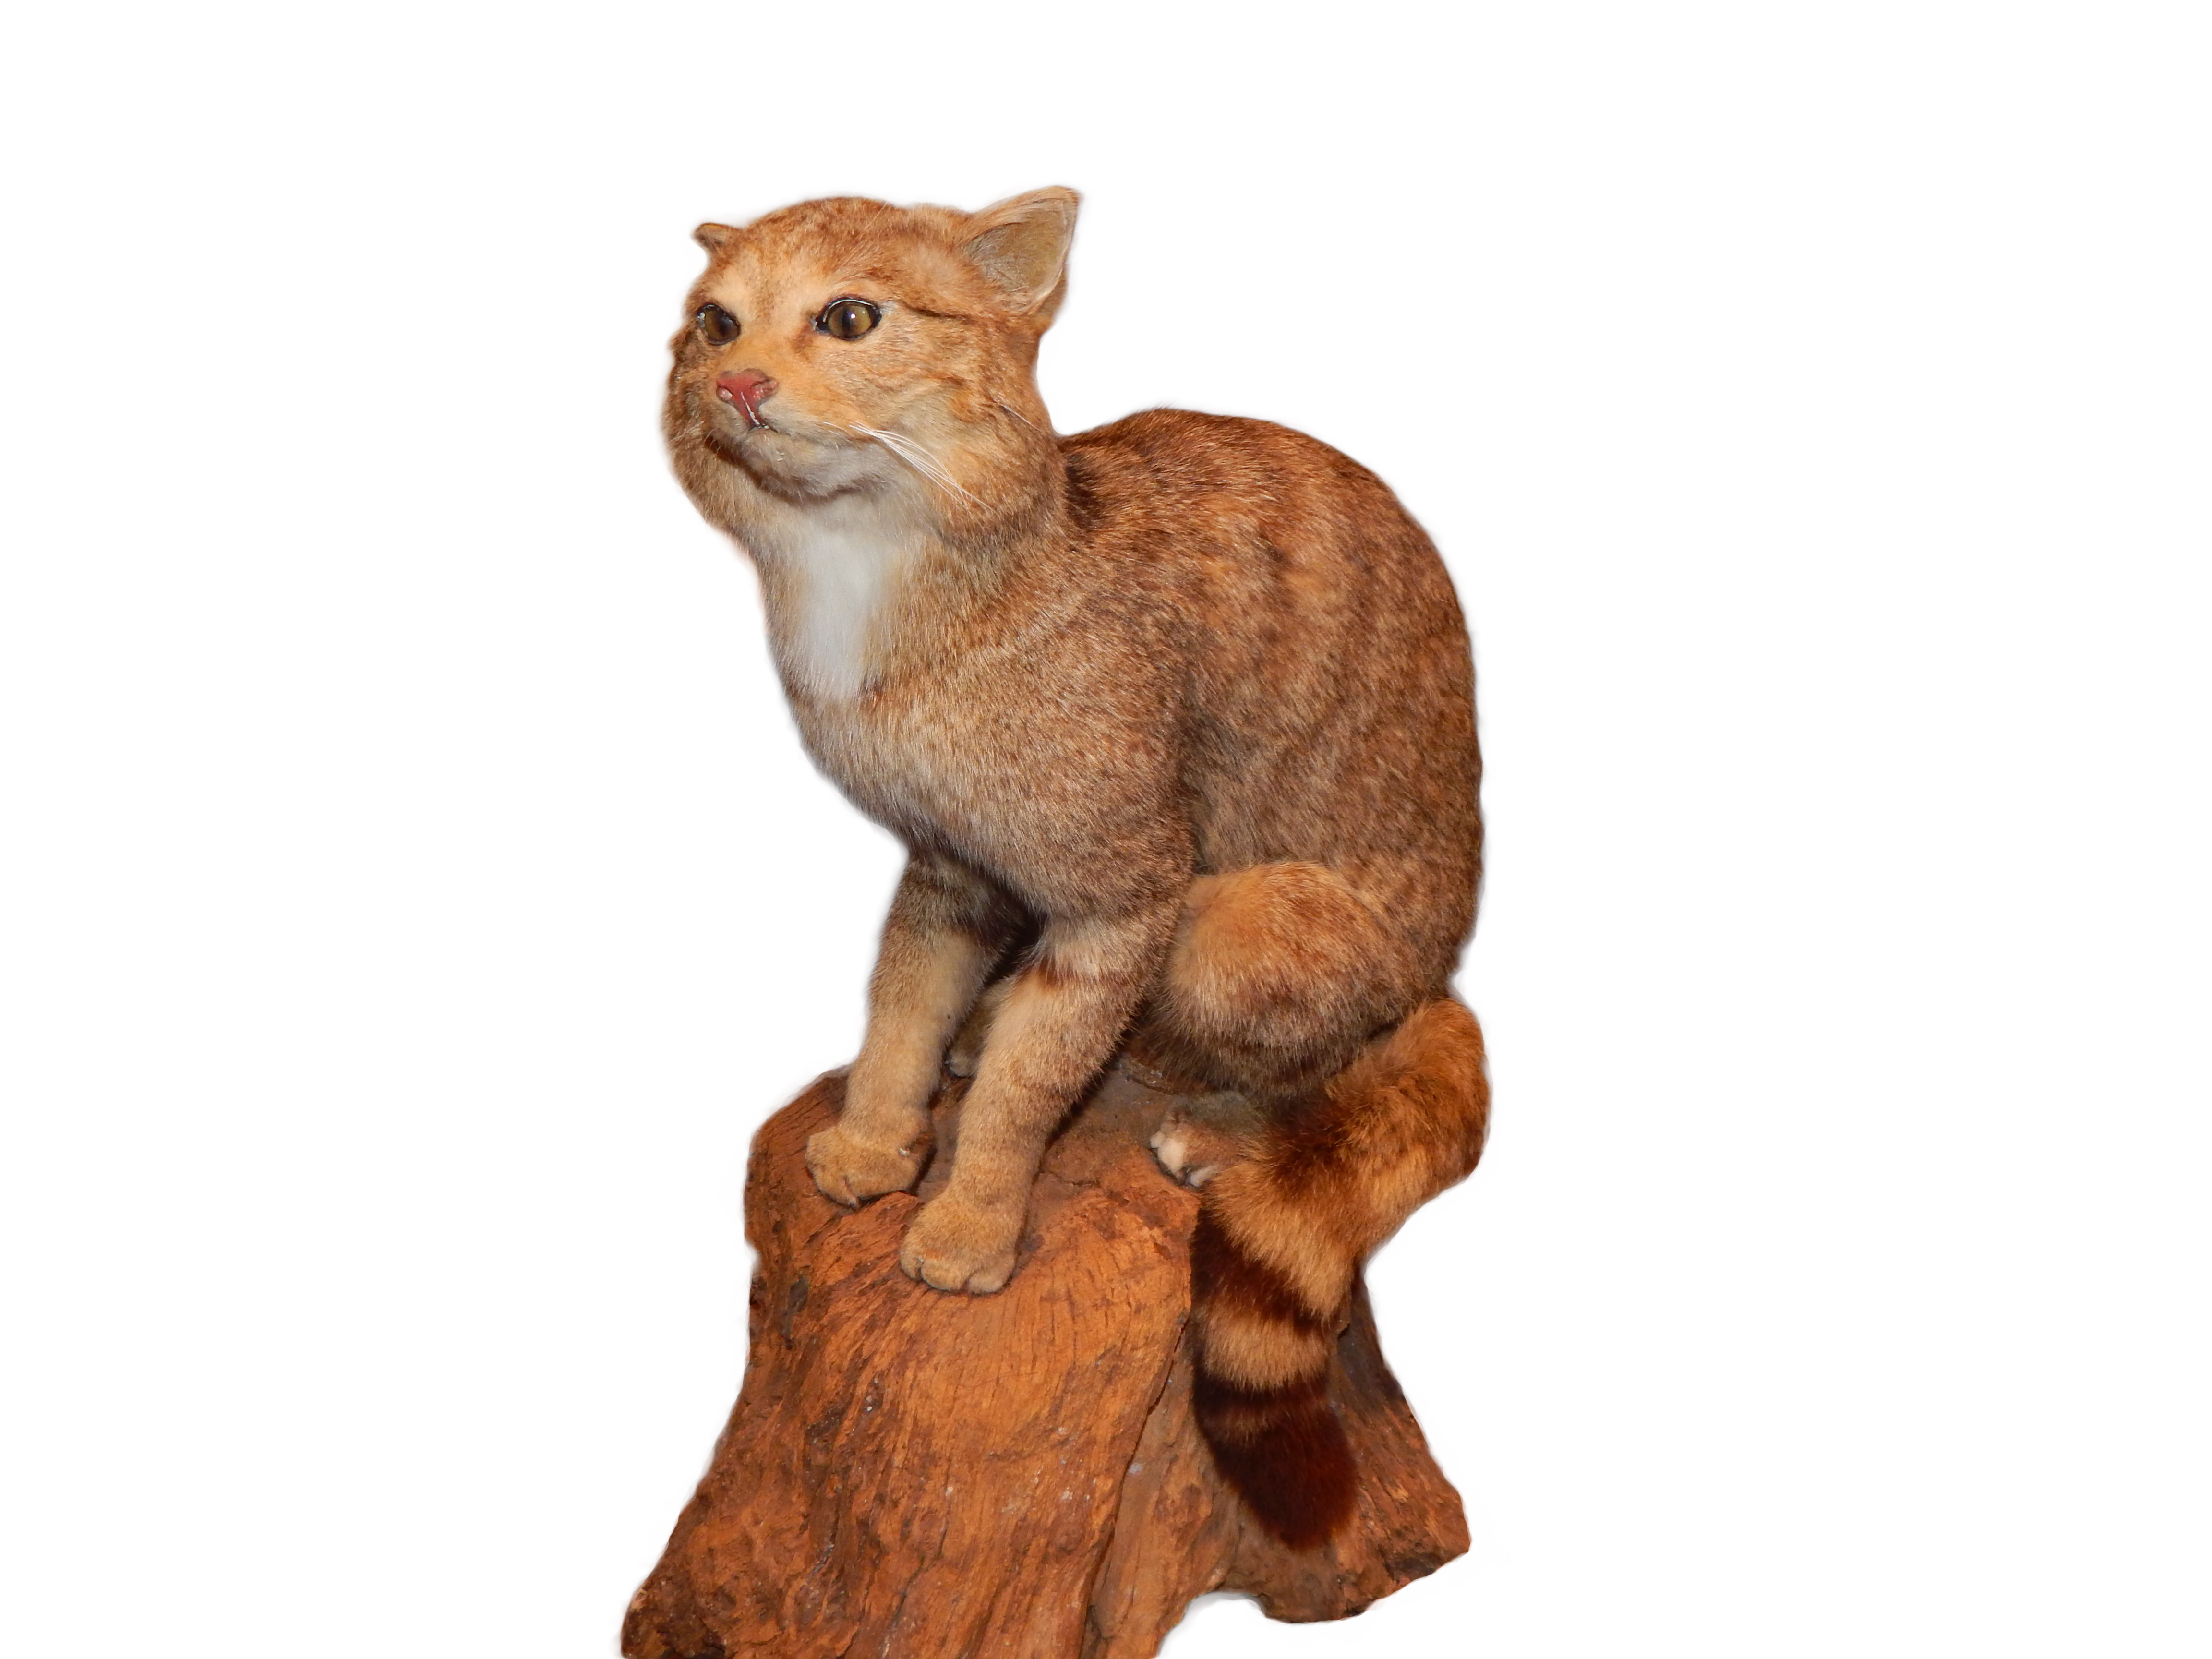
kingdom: Animalia
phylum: Chordata
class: Mammalia
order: Carnivora
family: Felidae
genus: Felis
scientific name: Felis silvestris
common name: Wildcat
